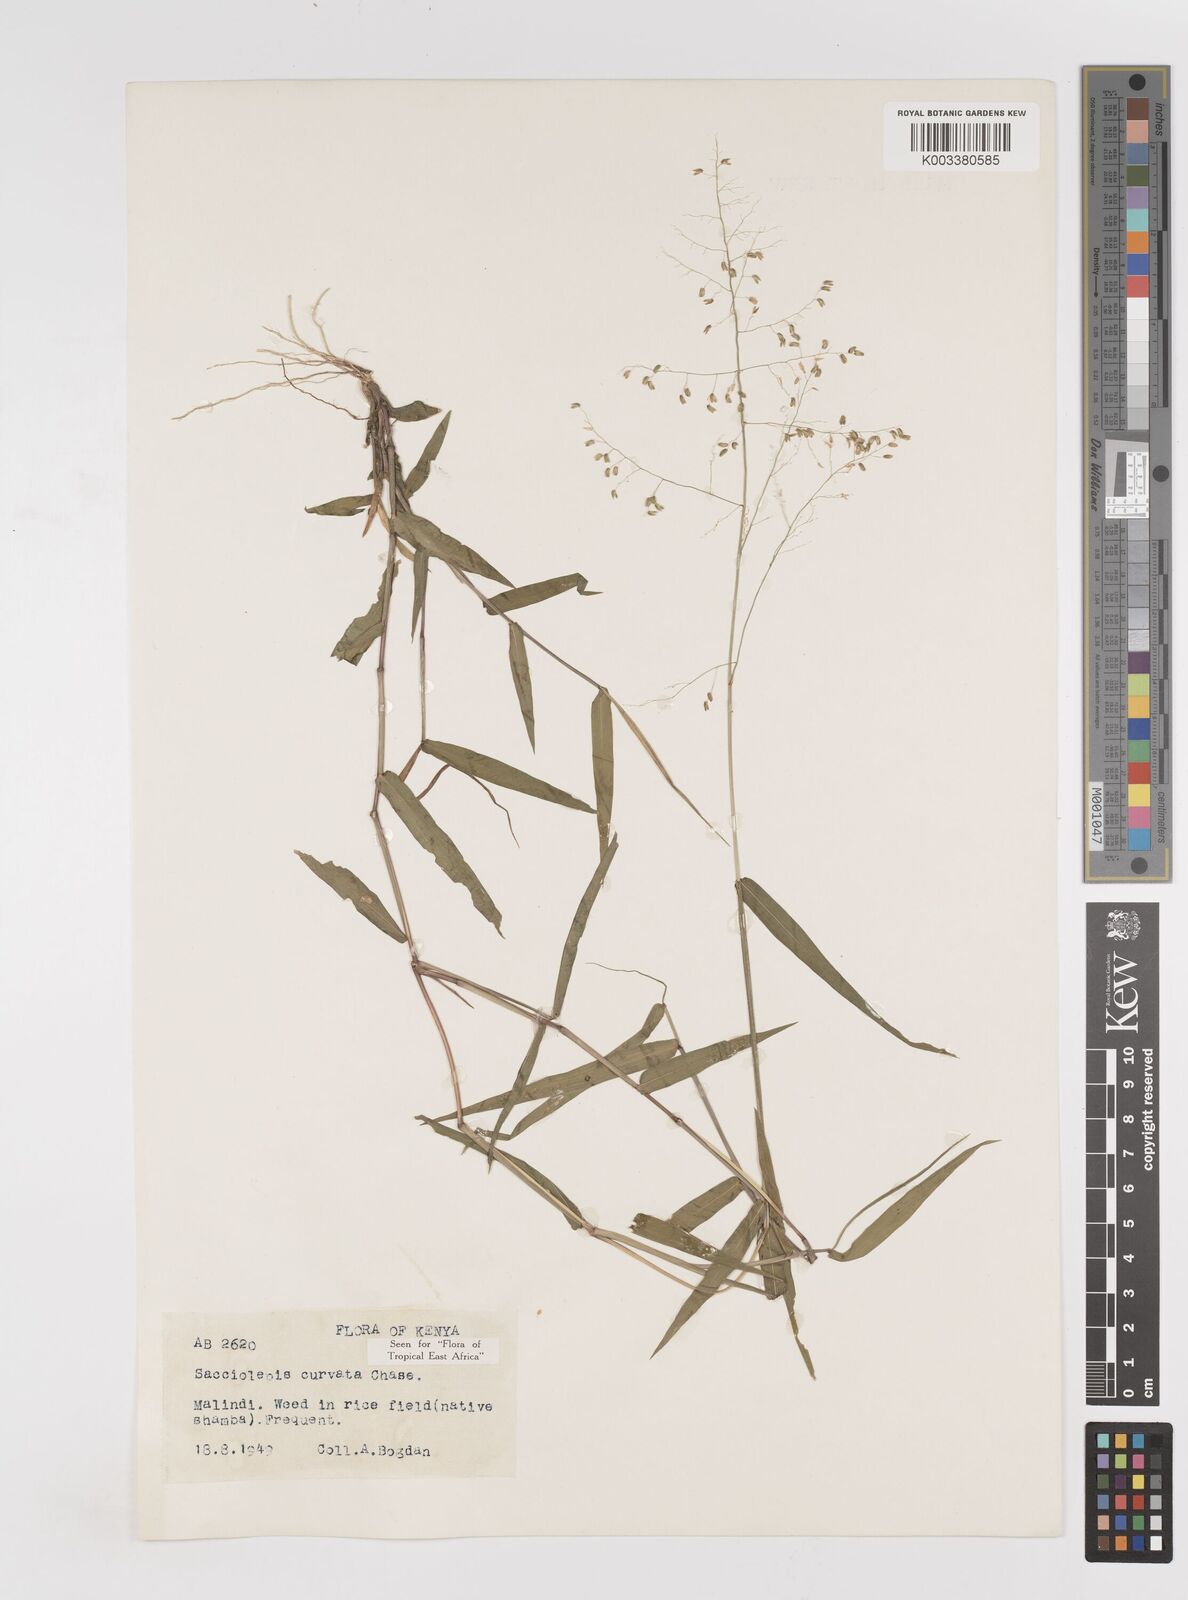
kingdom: Plantae
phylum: Tracheophyta
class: Liliopsida
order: Poales
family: Poaceae
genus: Sacciolepis
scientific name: Sacciolepis curvata
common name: Forest hood grass
